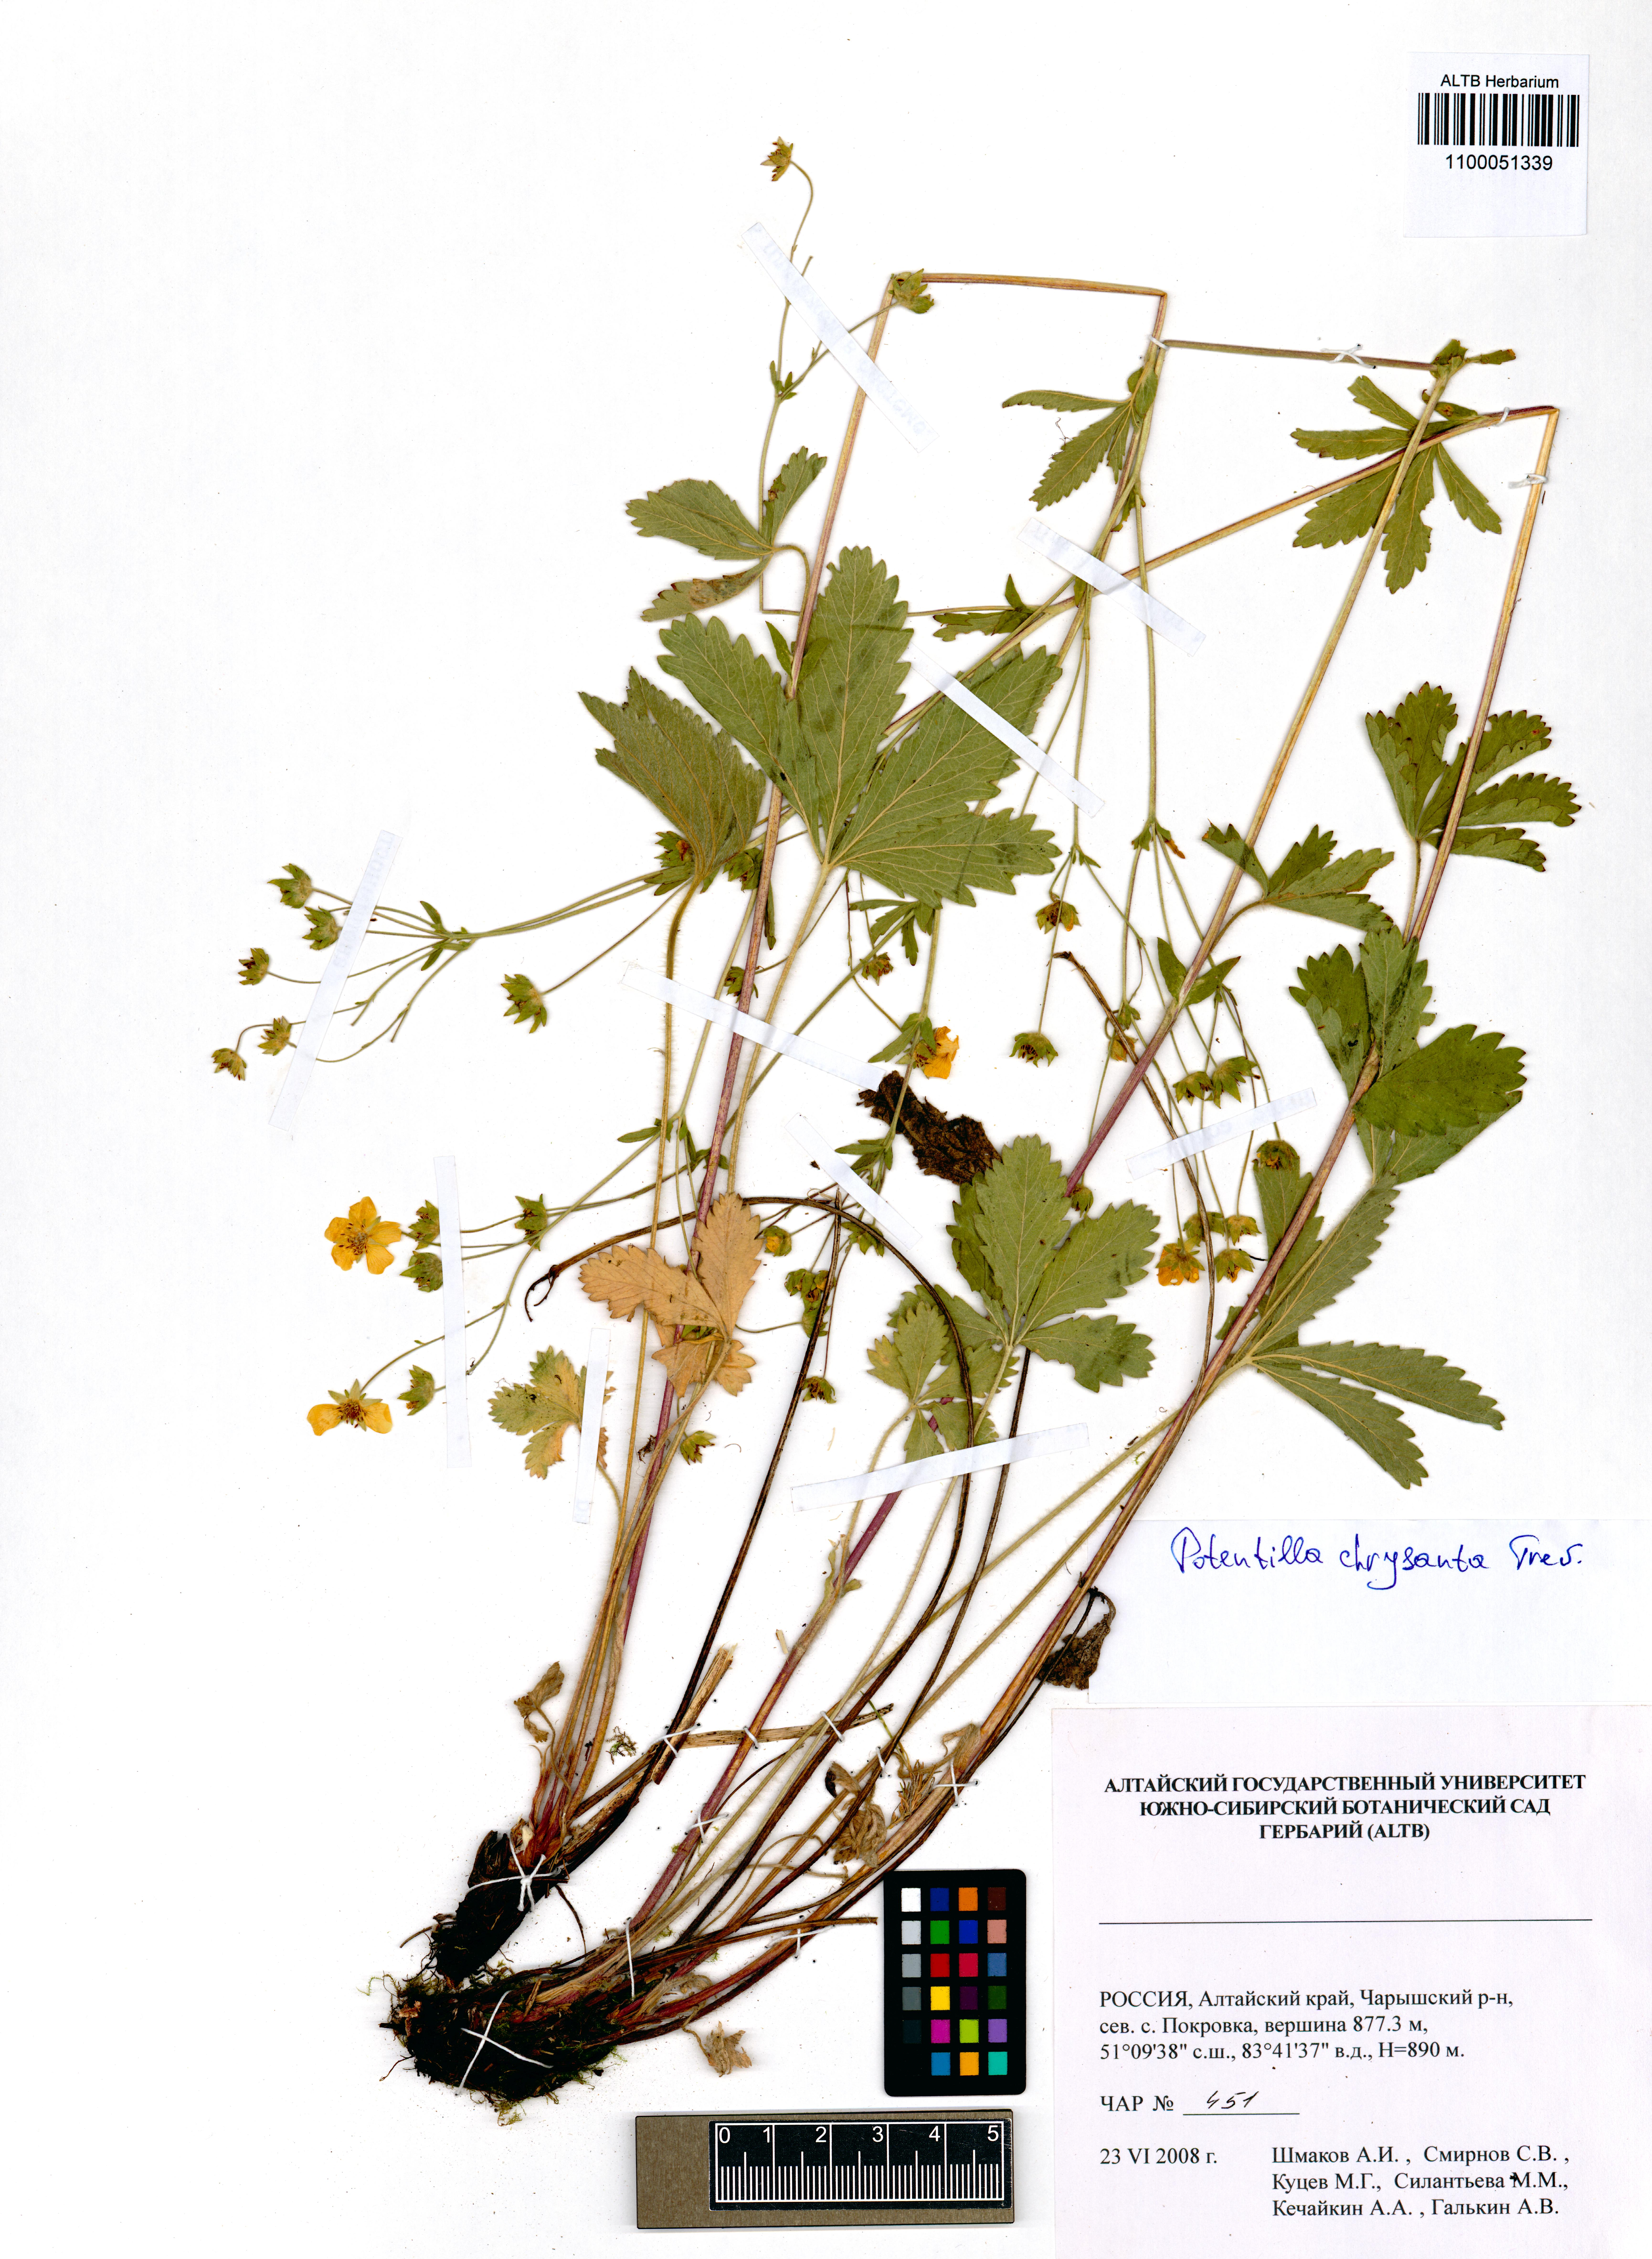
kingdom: Plantae
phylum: Tracheophyta
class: Magnoliopsida
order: Rosales
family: Rosaceae
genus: Potentilla
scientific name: Potentilla chrysantha
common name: Thuringian cinquefoil
